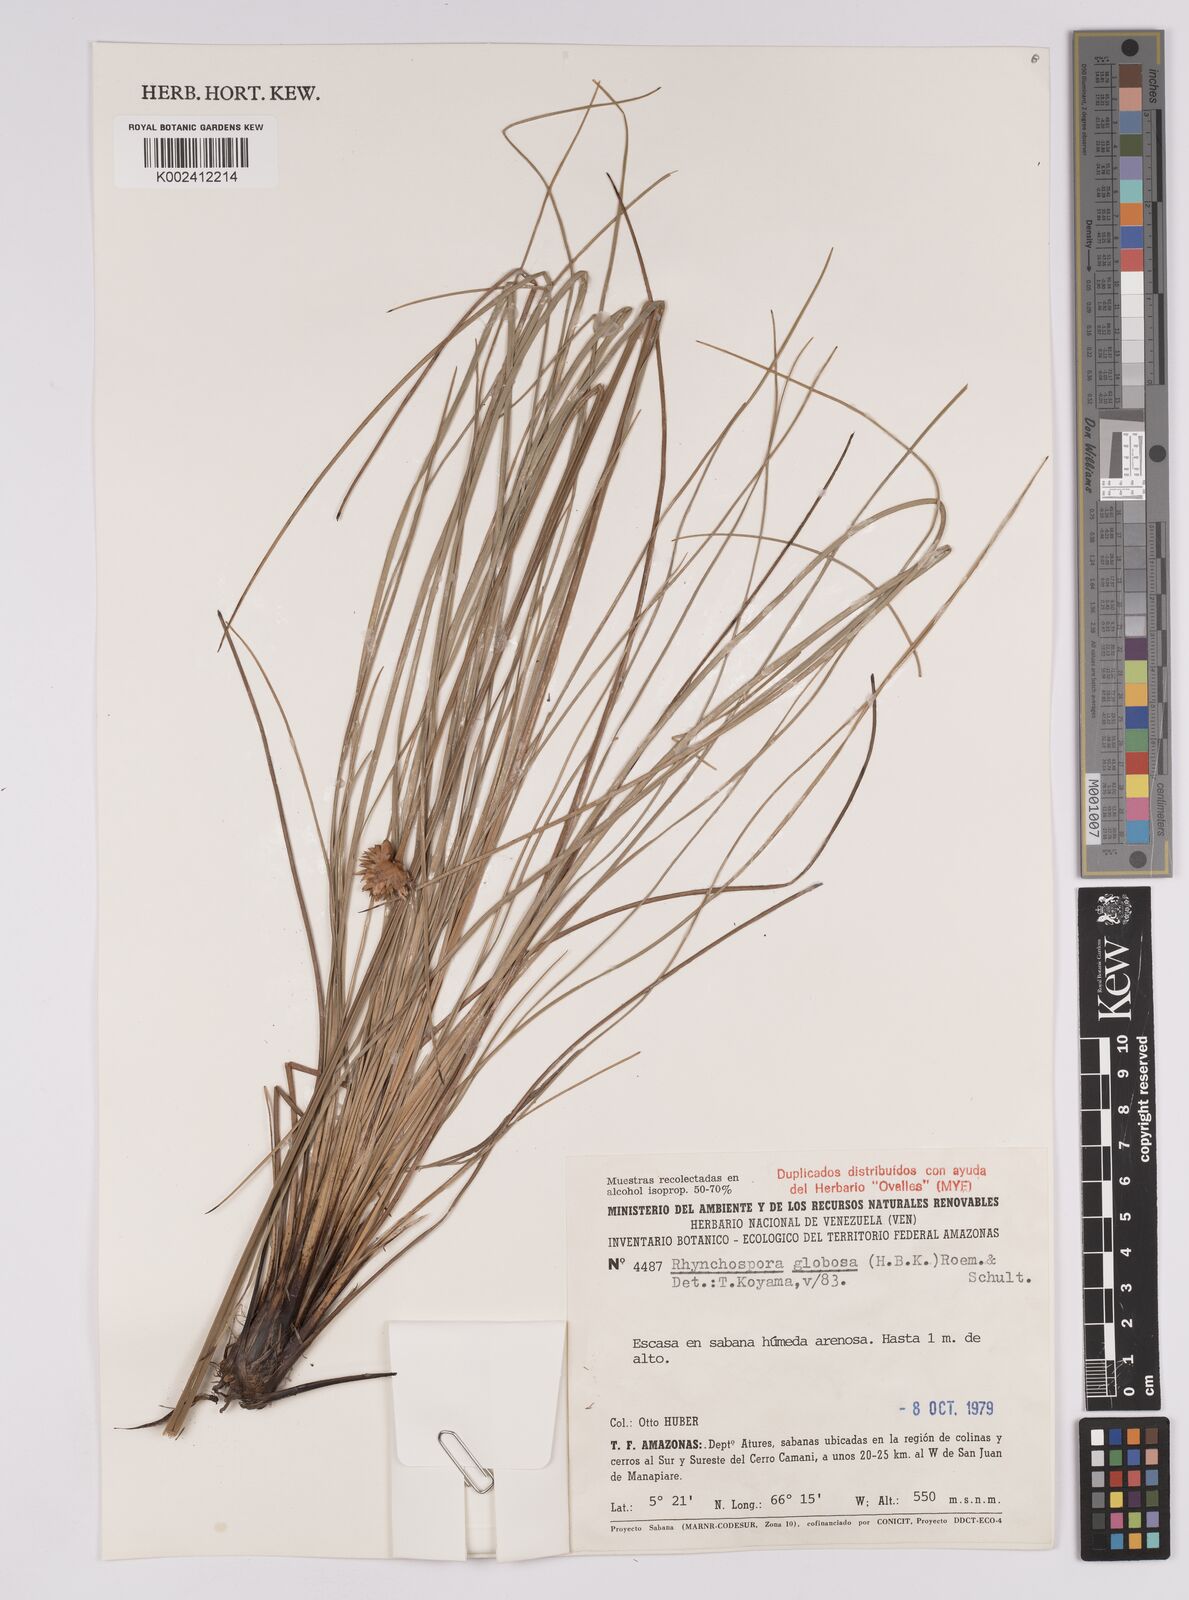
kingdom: Plantae
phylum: Tracheophyta
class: Liliopsida
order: Poales
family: Cyperaceae
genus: Rhynchospora
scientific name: Rhynchospora globosa
